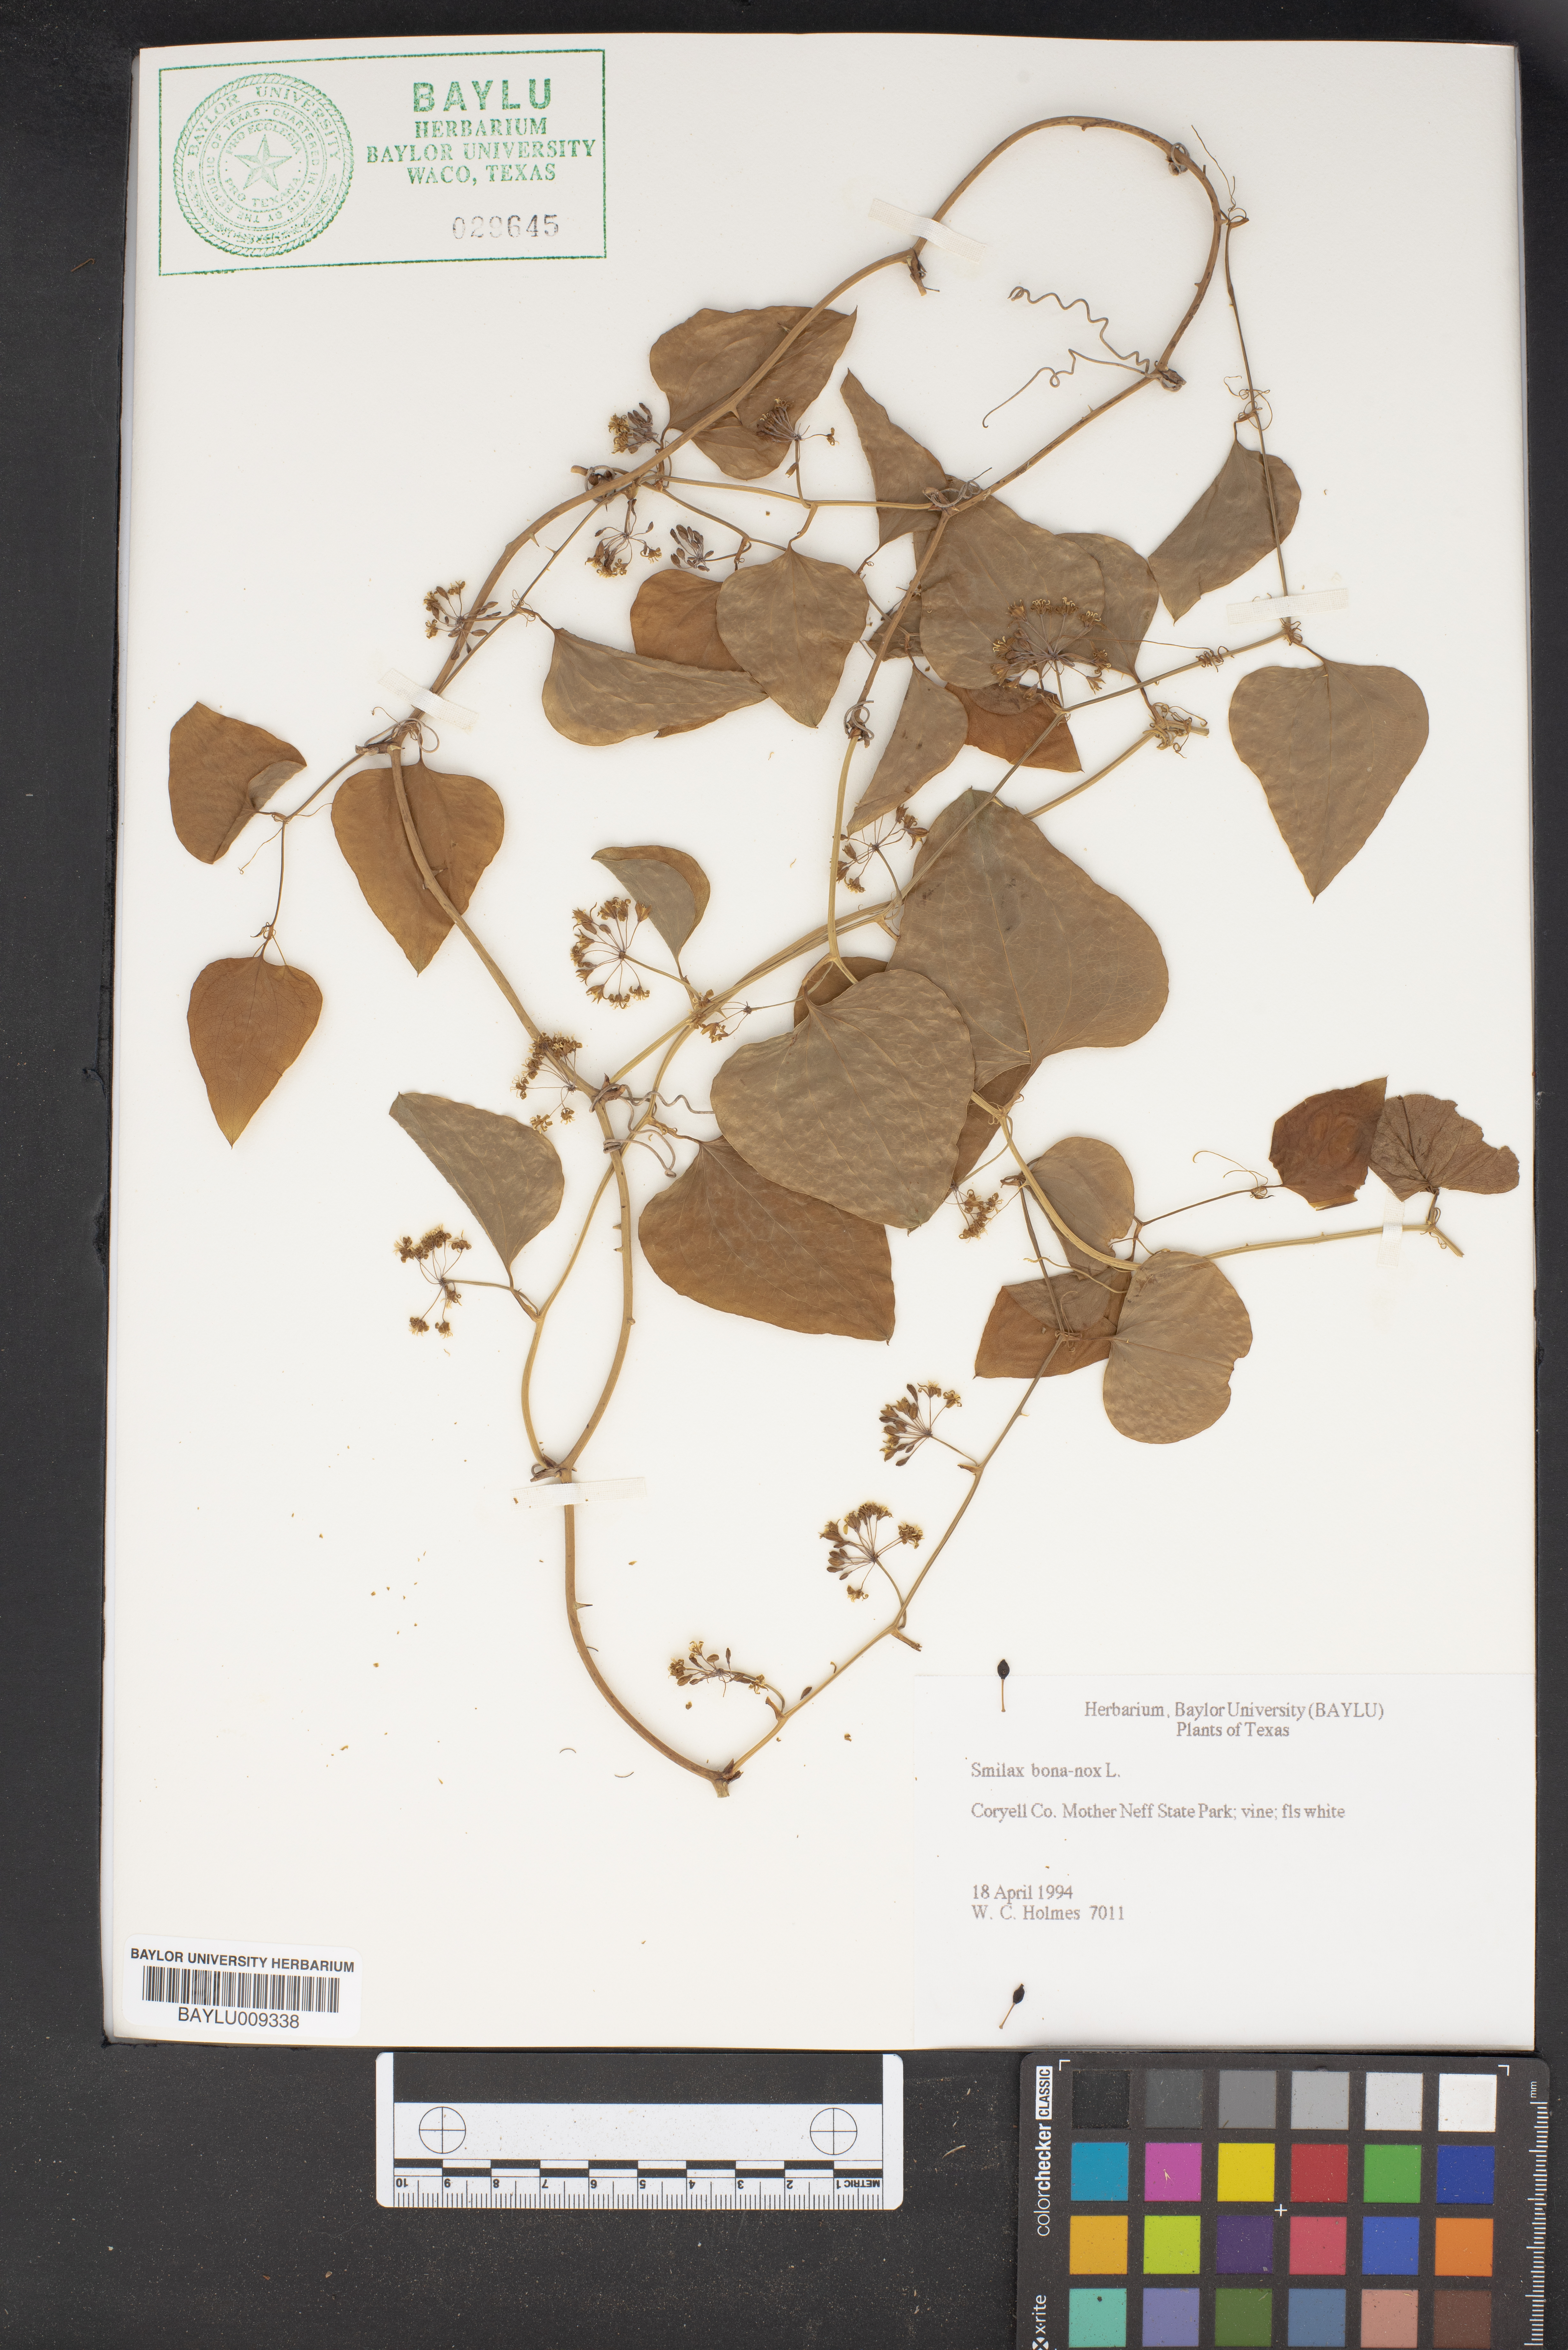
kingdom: Plantae
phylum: Tracheophyta
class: Liliopsida
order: Liliales
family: Smilacaceae
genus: Smilax
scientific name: Smilax bona-nox
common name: Catbrier
